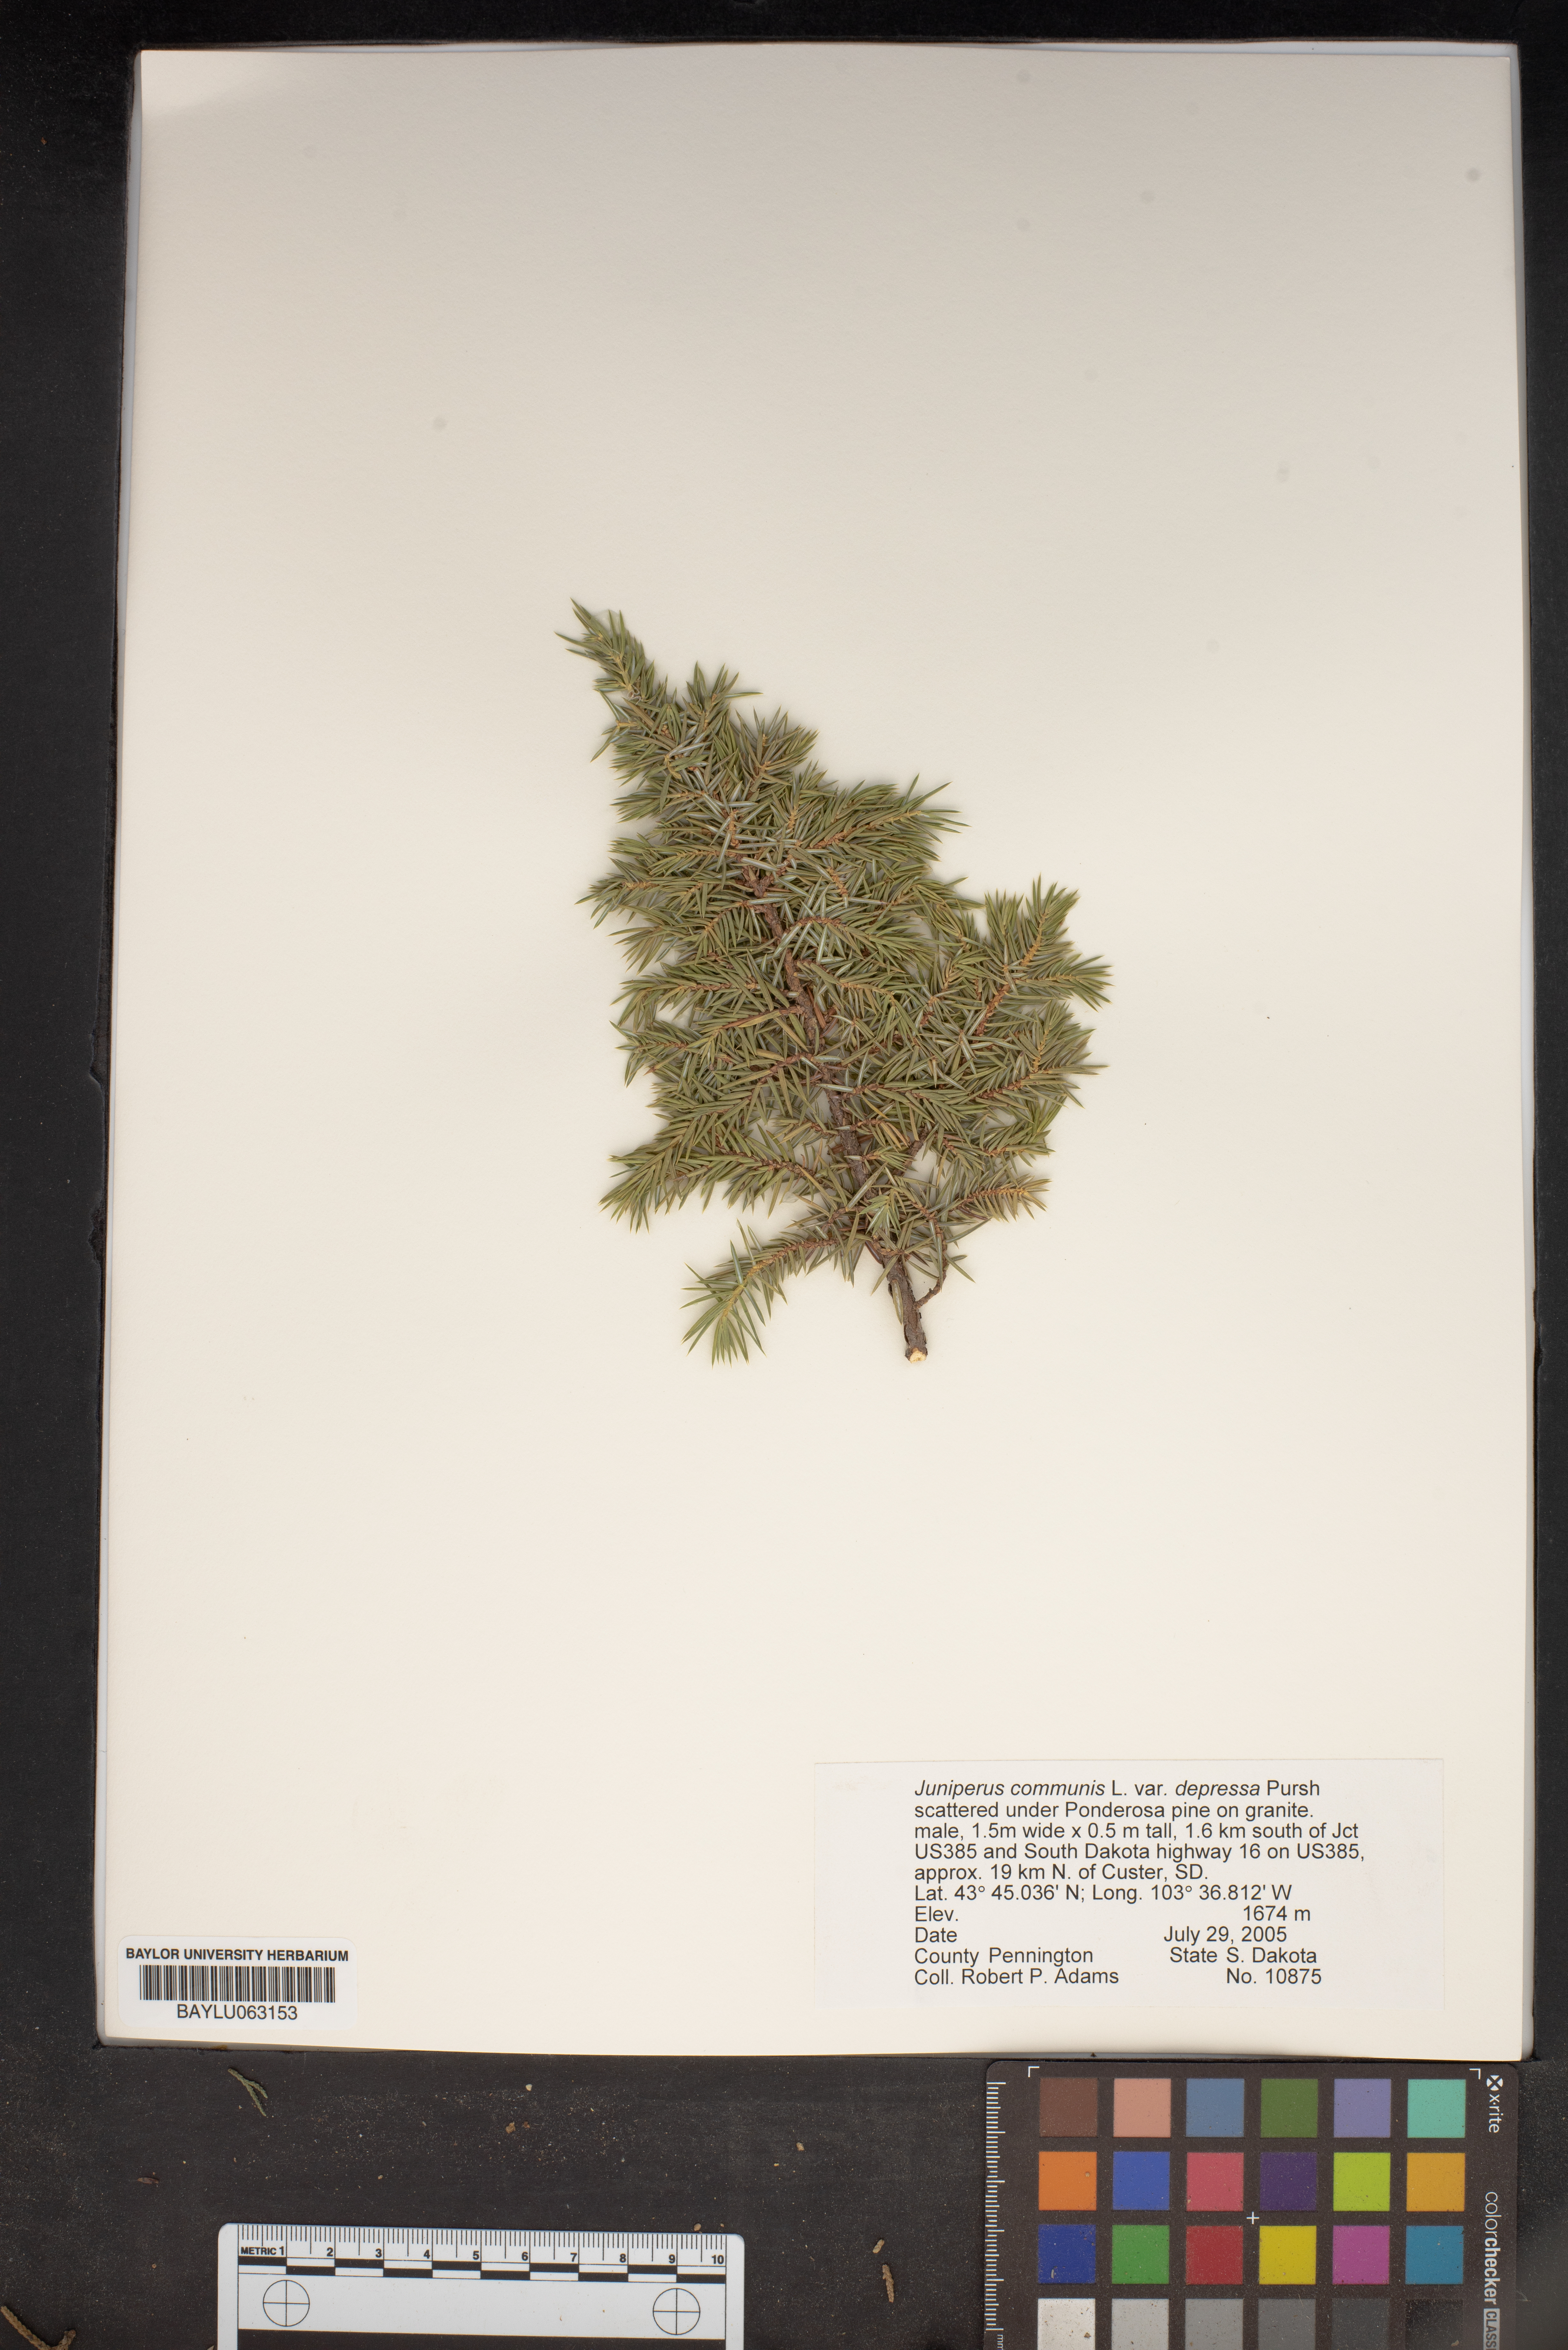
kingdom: Plantae
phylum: Tracheophyta
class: Pinopsida
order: Pinales
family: Cupressaceae
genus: Juniperus
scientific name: Juniperus communis
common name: Common juniper
